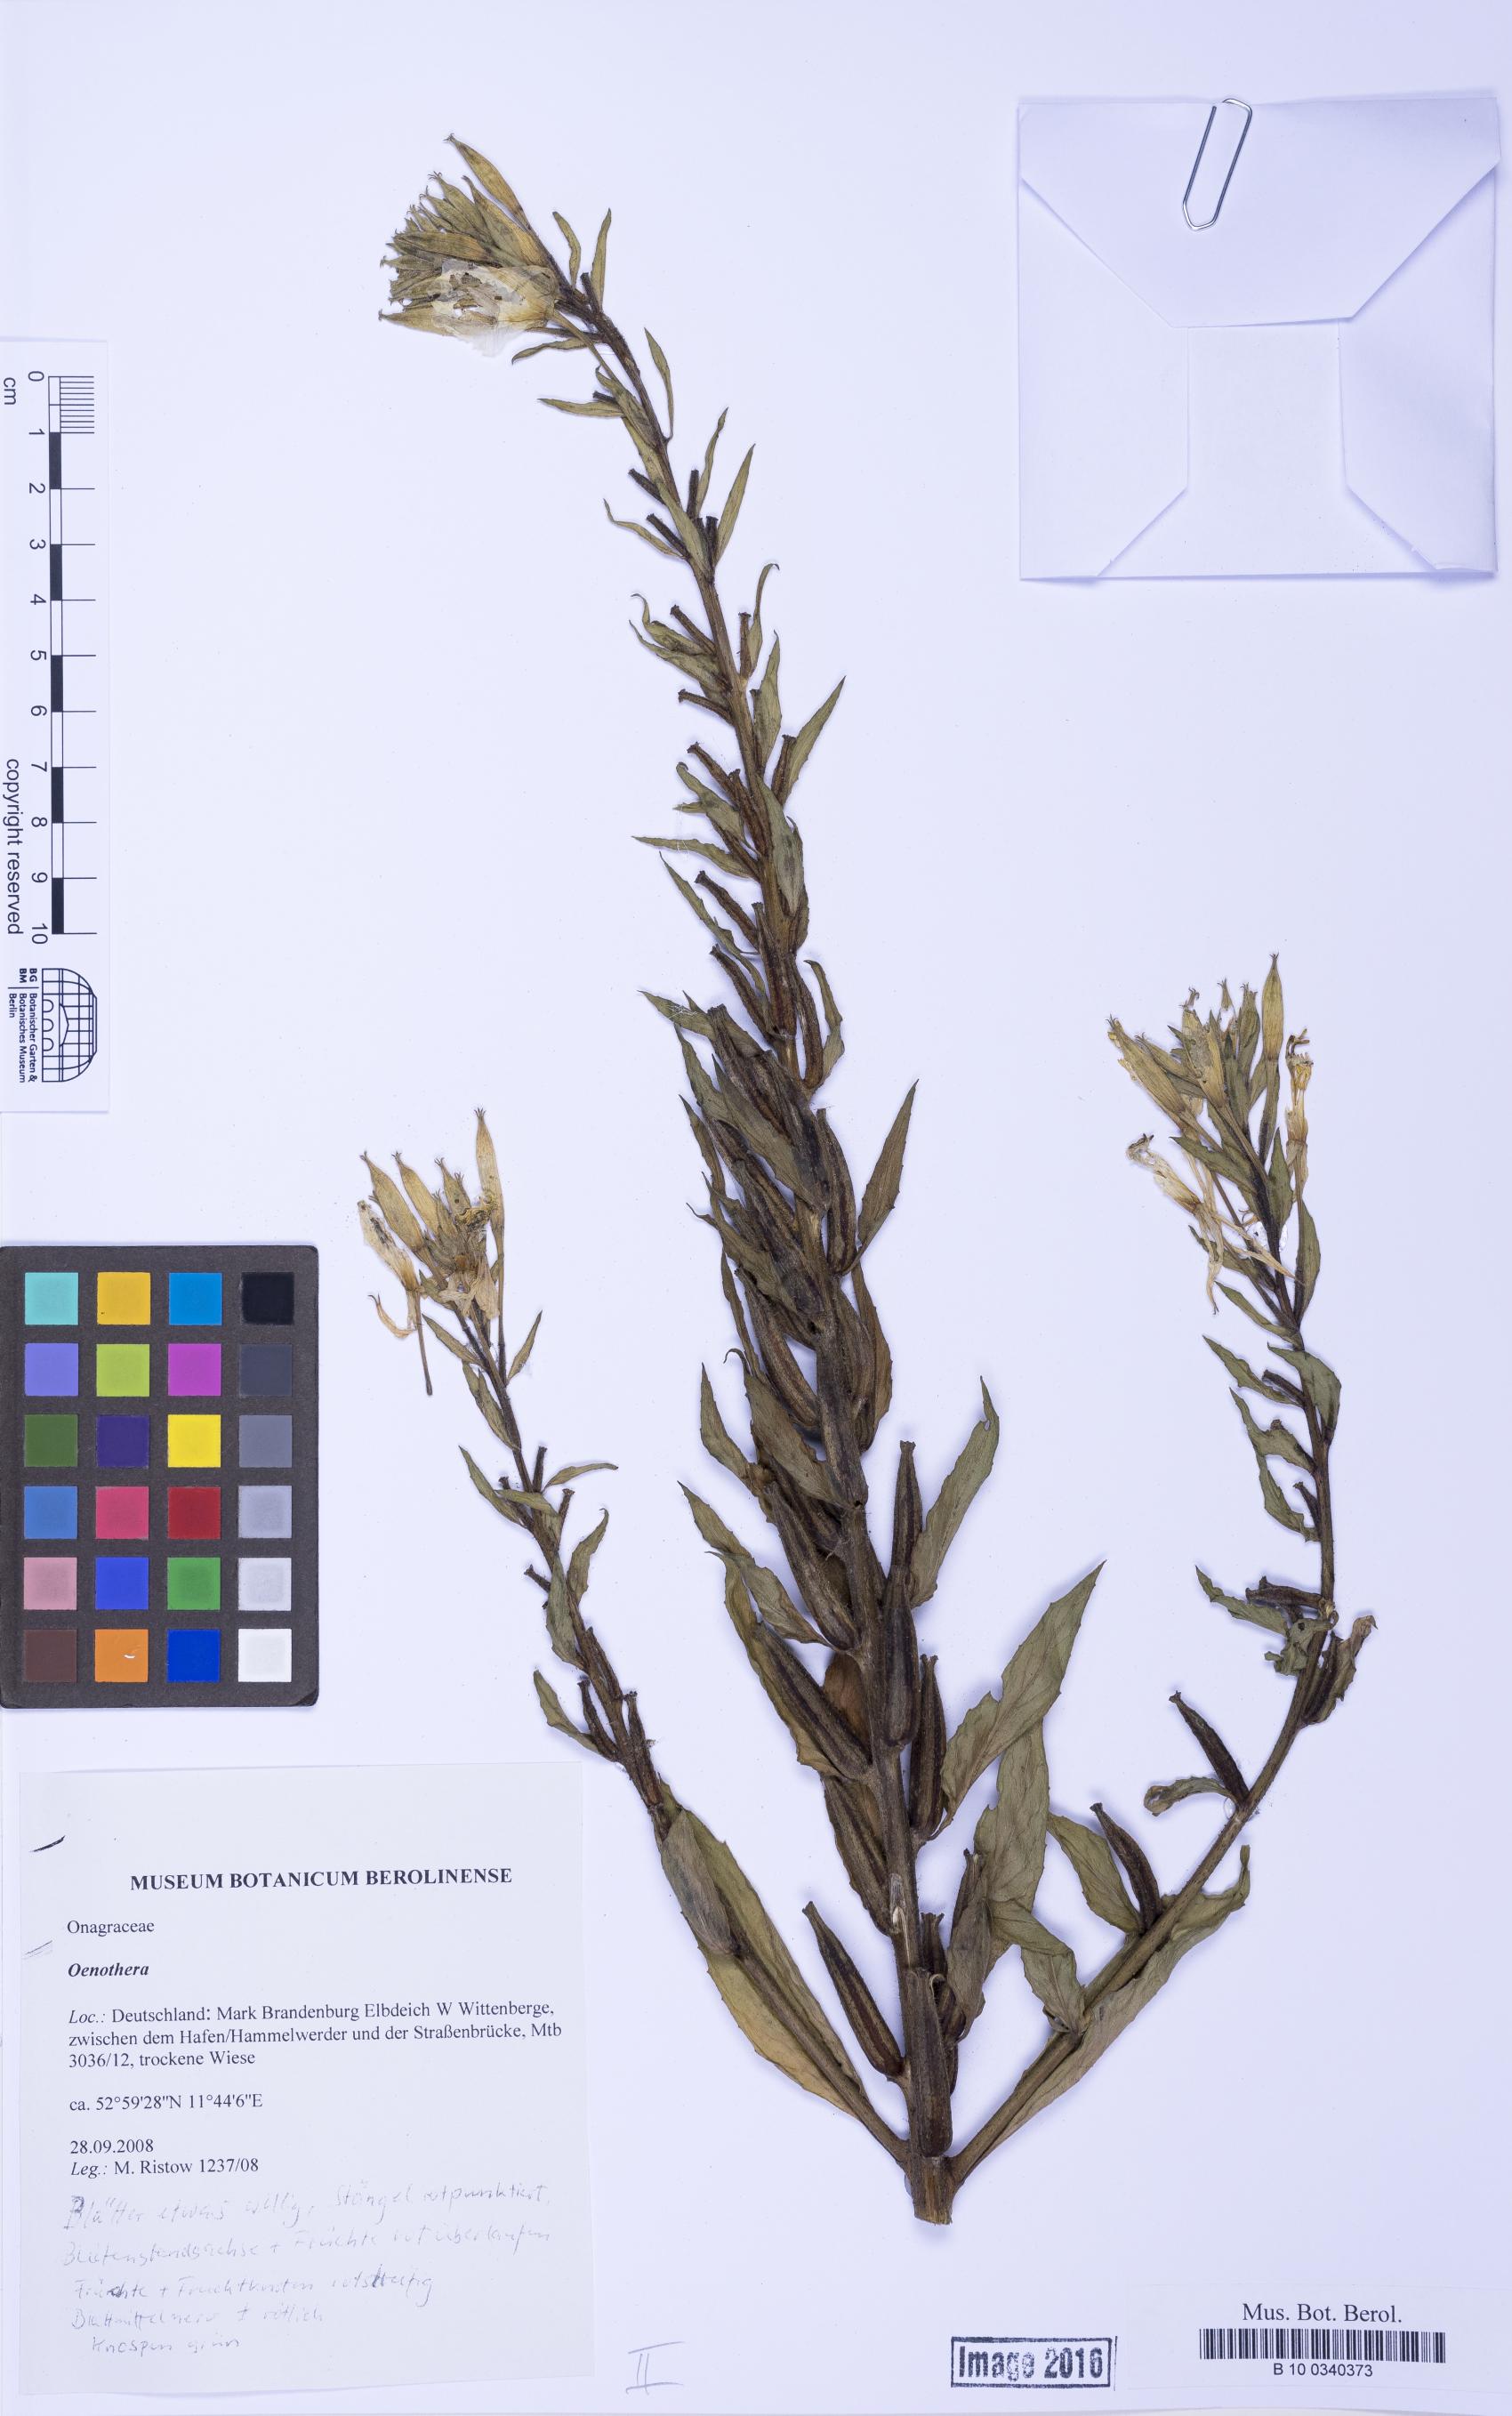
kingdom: Plantae
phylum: Tracheophyta
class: Magnoliopsida
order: Myrtales
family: Onagraceae
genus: Oenothera
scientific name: Oenothera
